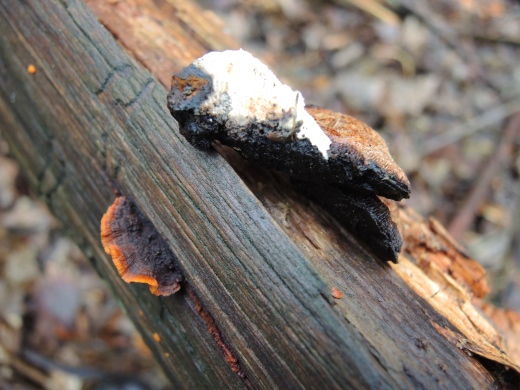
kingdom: Fungi
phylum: Basidiomycota
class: Agaricomycetes
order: Gloeophyllales
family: Gloeophyllaceae
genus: Gloeophyllum
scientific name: Gloeophyllum sepiarium
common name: fyrre-korkhat
